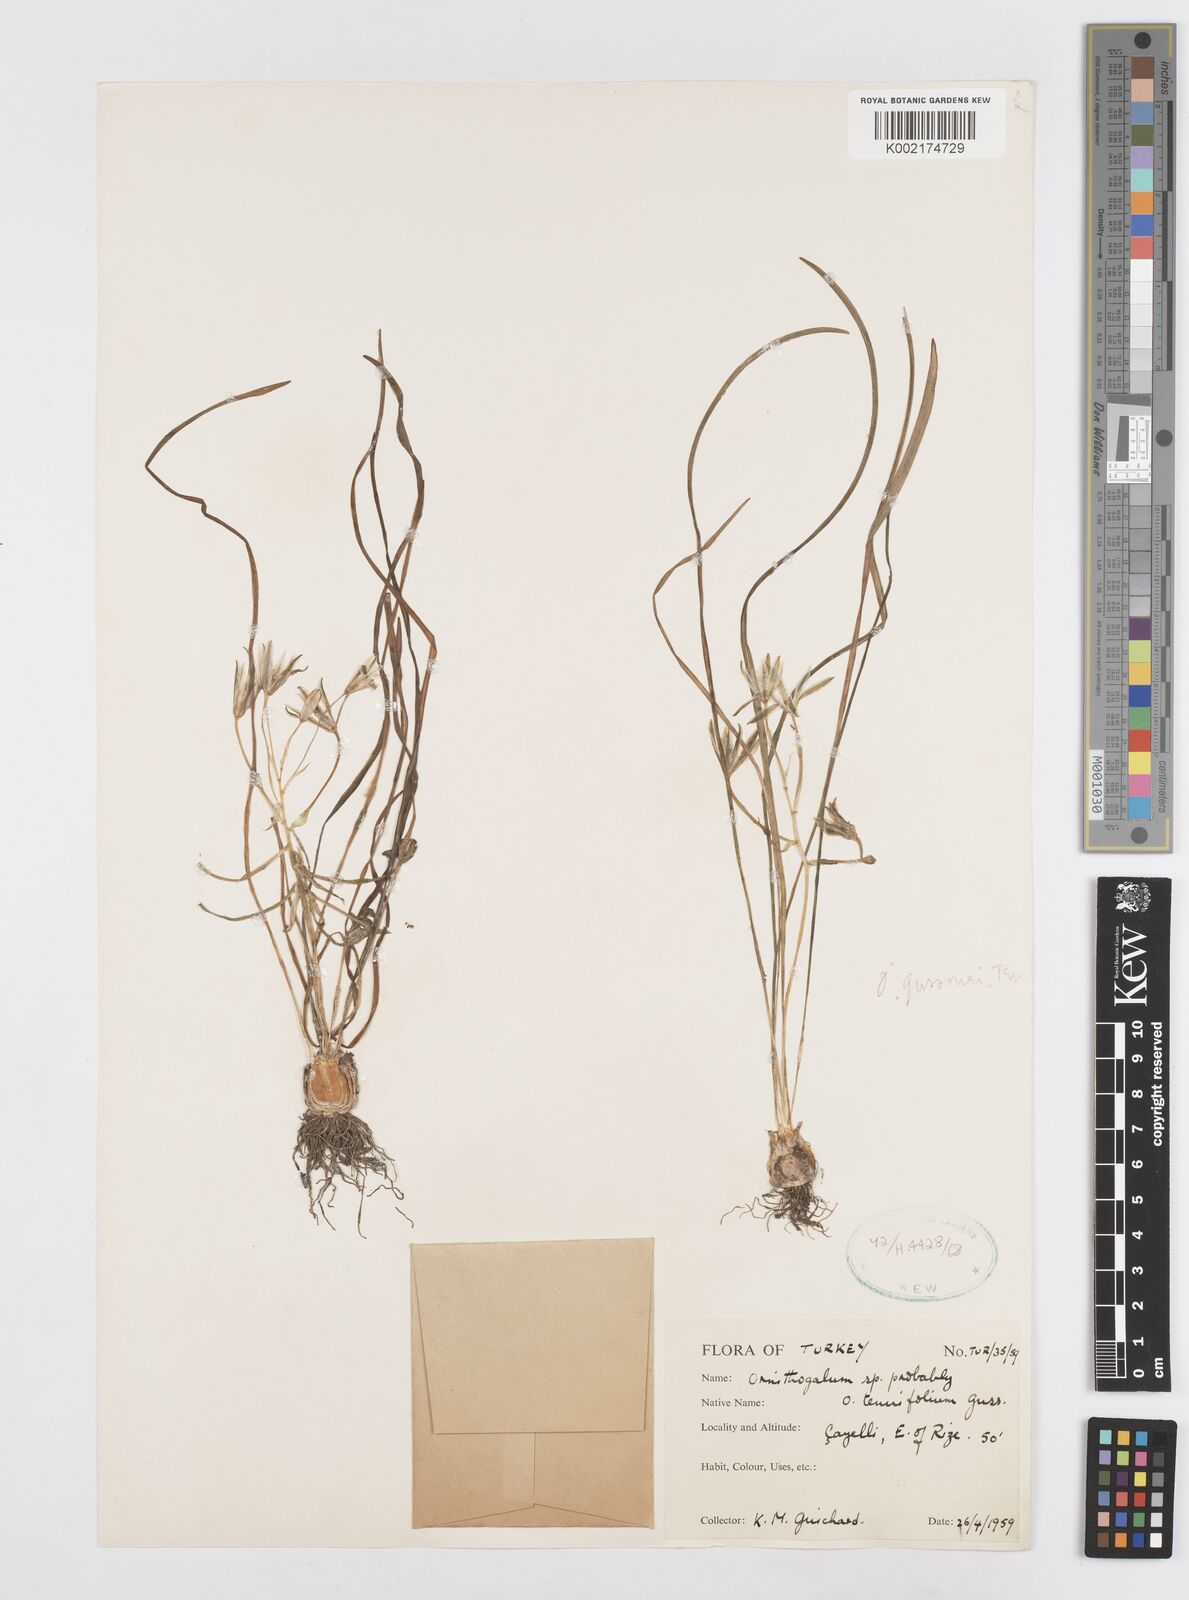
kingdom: Plantae
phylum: Tracheophyta
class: Liliopsida
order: Asparagales
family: Asparagaceae
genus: Ornithogalum
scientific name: Ornithogalum gussonei
